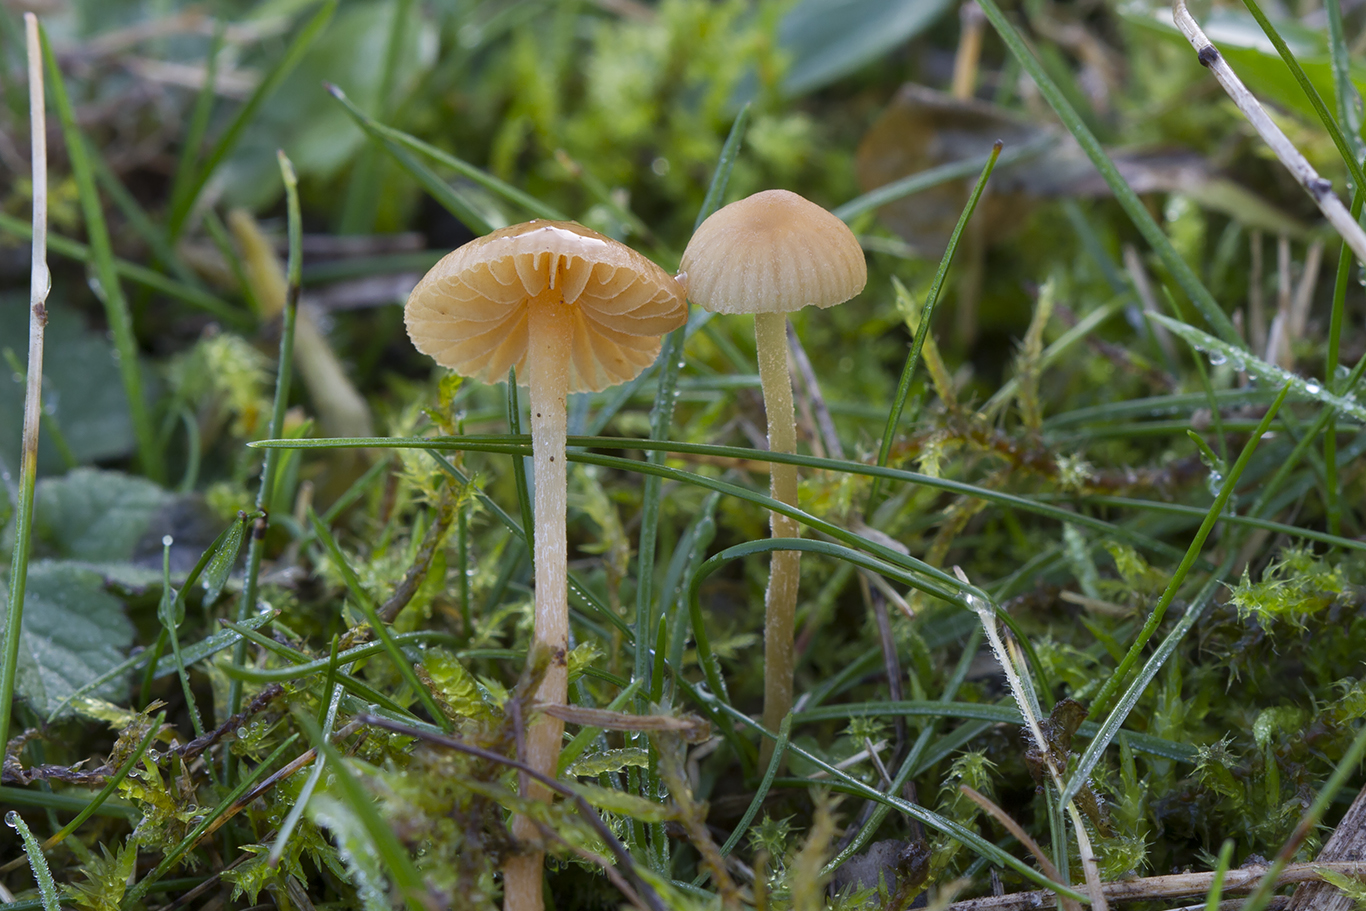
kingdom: Fungi
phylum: Basidiomycota
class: Agaricomycetes
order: Agaricales
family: Hymenogastraceae
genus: Galerina
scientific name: Galerina graminea
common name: plæne-hjelmhat
